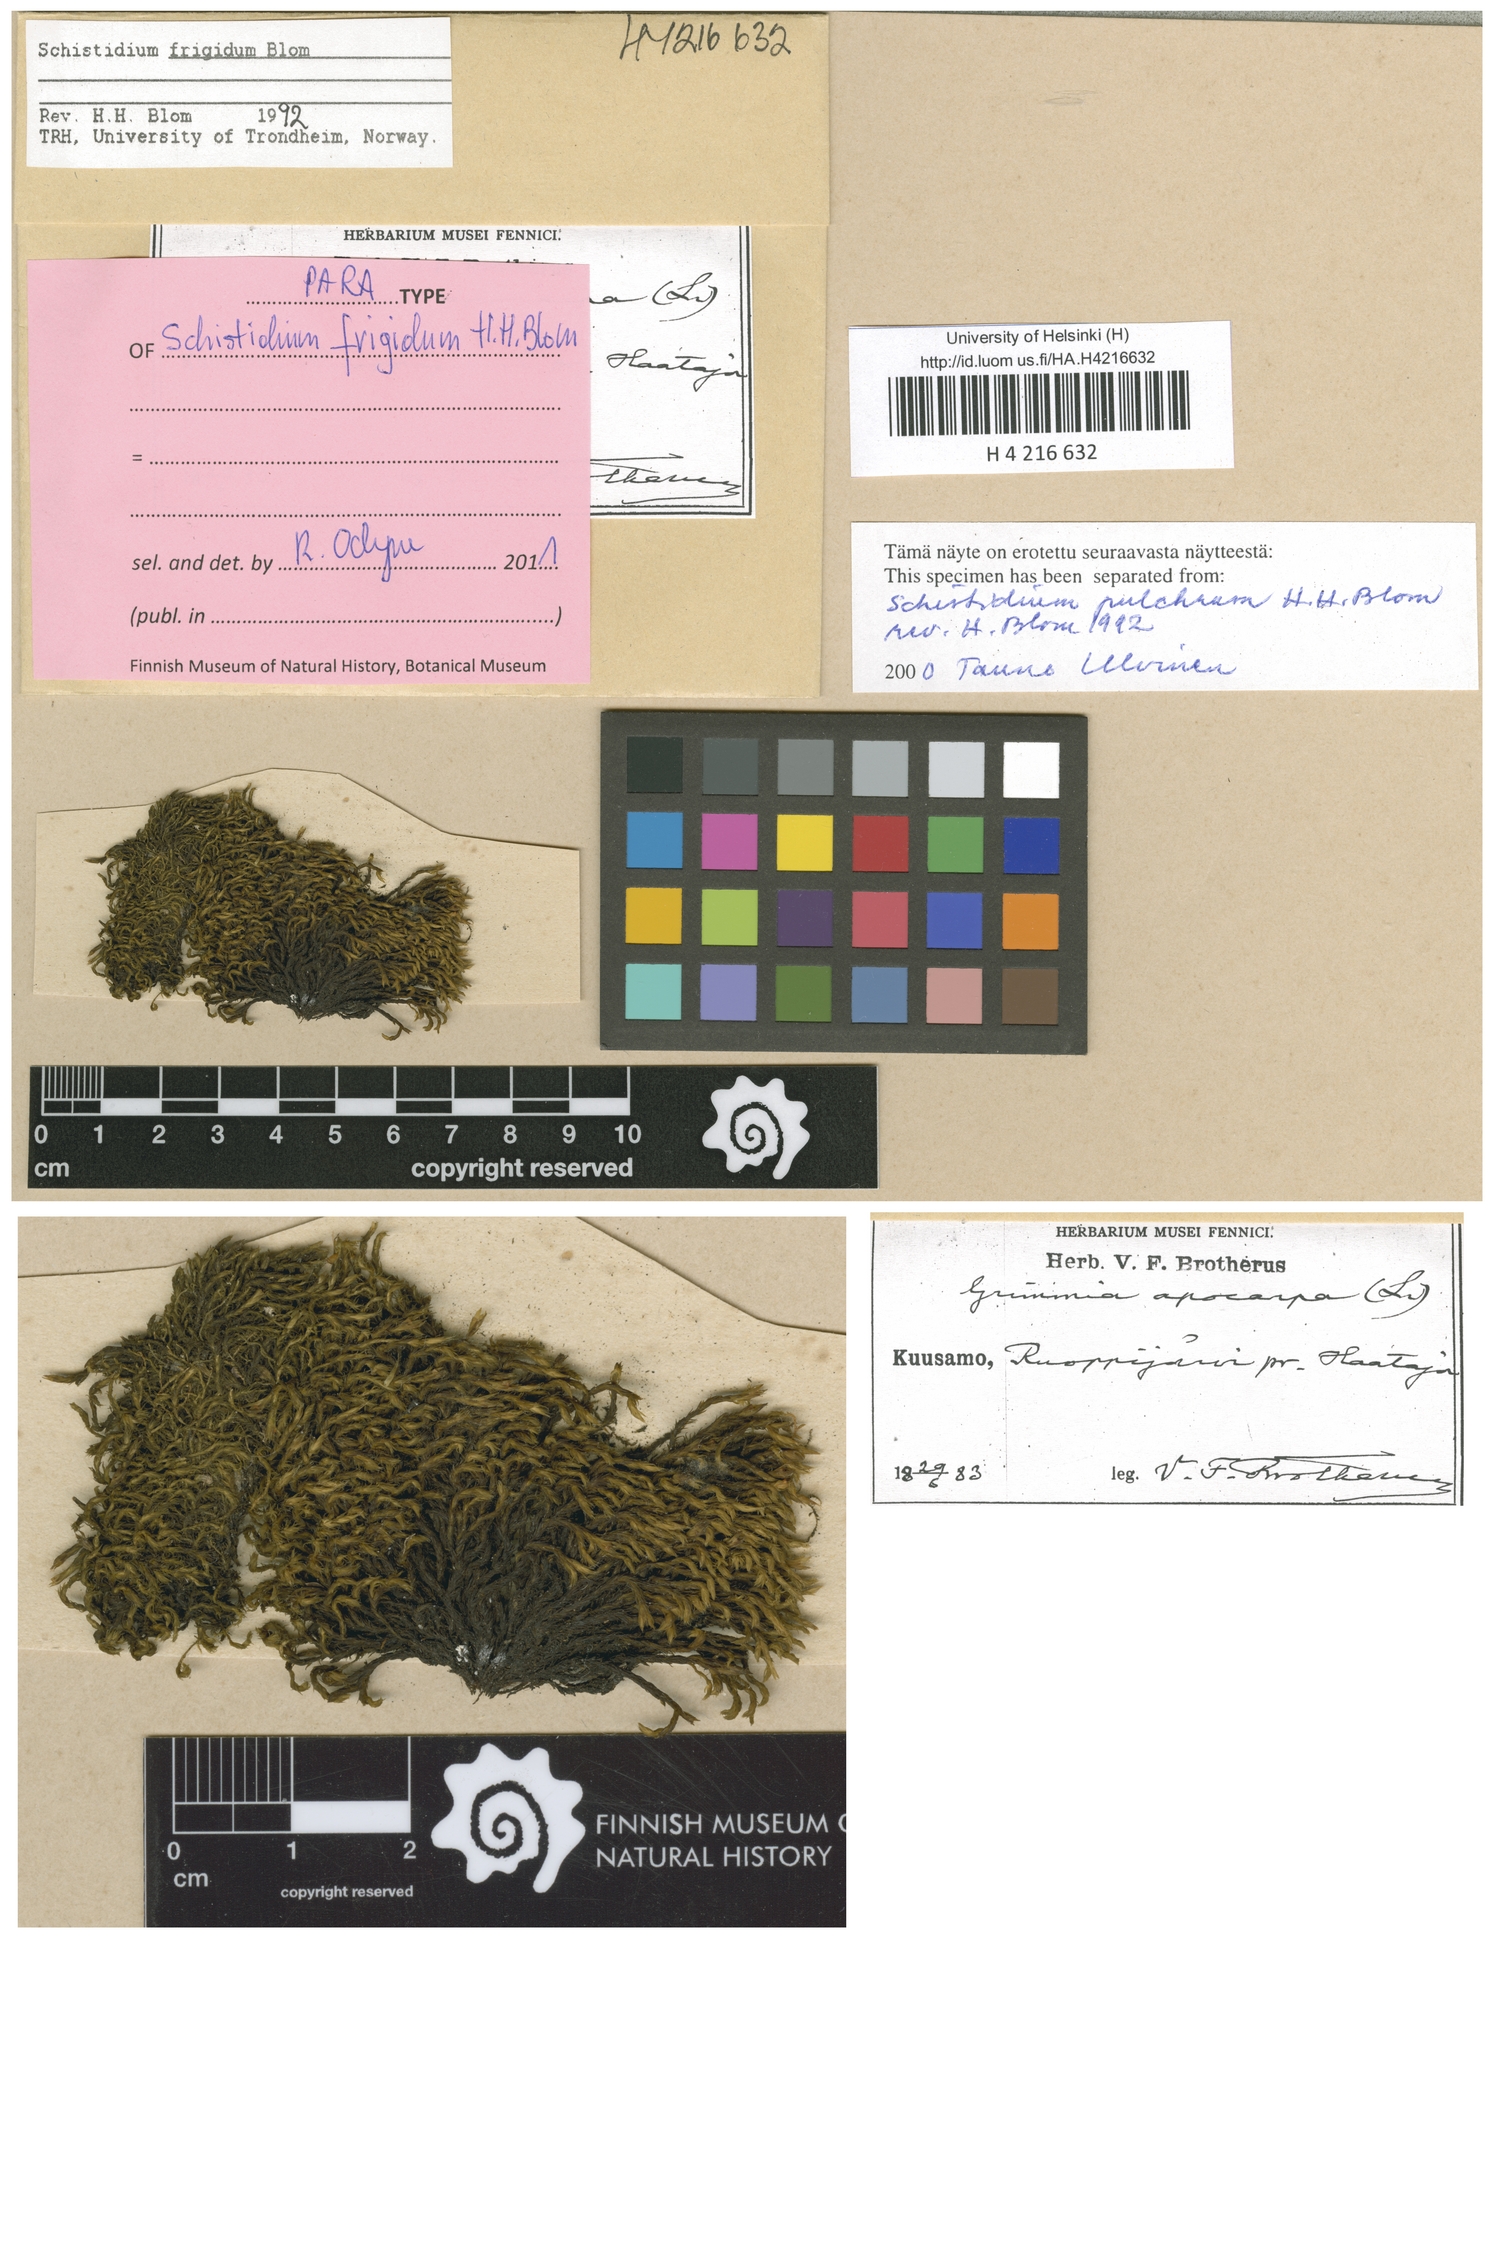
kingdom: Plantae
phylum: Bryophyta
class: Bryopsida
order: Grimmiales
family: Grimmiaceae
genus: Schistidium
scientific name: Schistidium frigidum
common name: Arctic-alpine bloom moss
